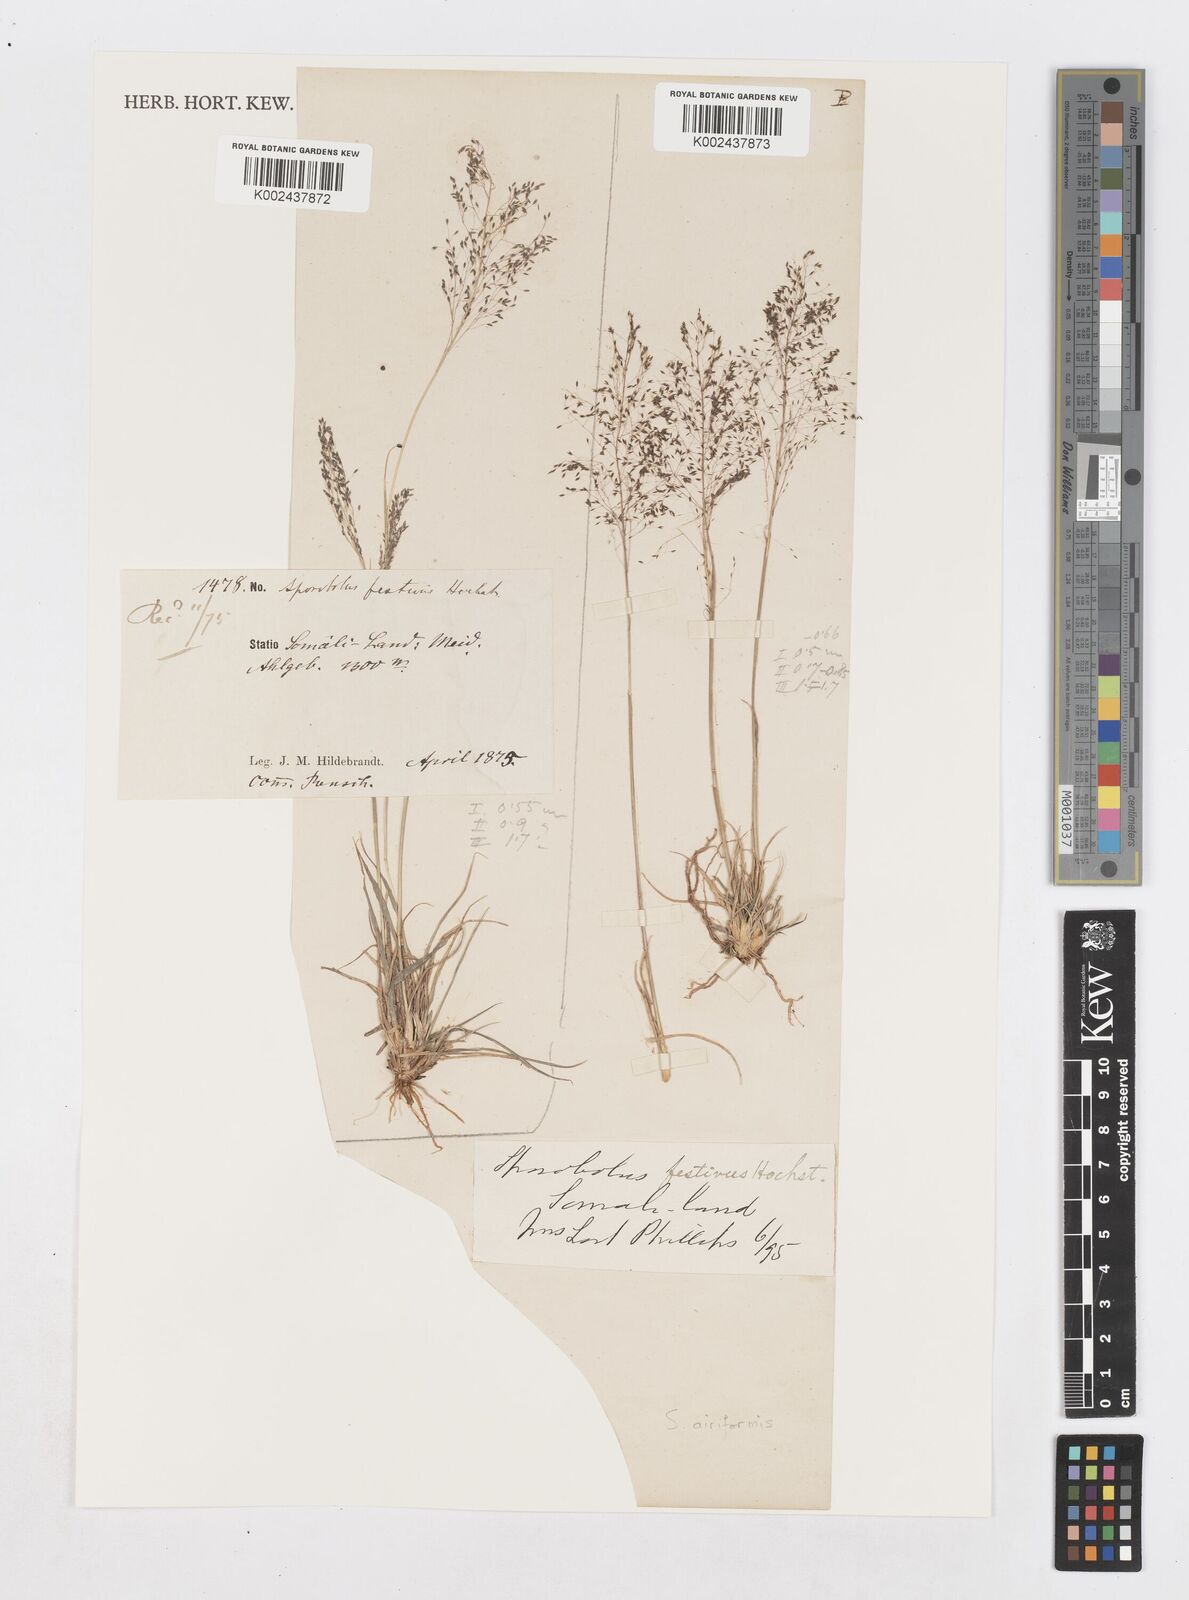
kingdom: Plantae
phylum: Tracheophyta
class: Liliopsida
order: Poales
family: Poaceae
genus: Sporobolus
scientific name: Sporobolus airiformis
